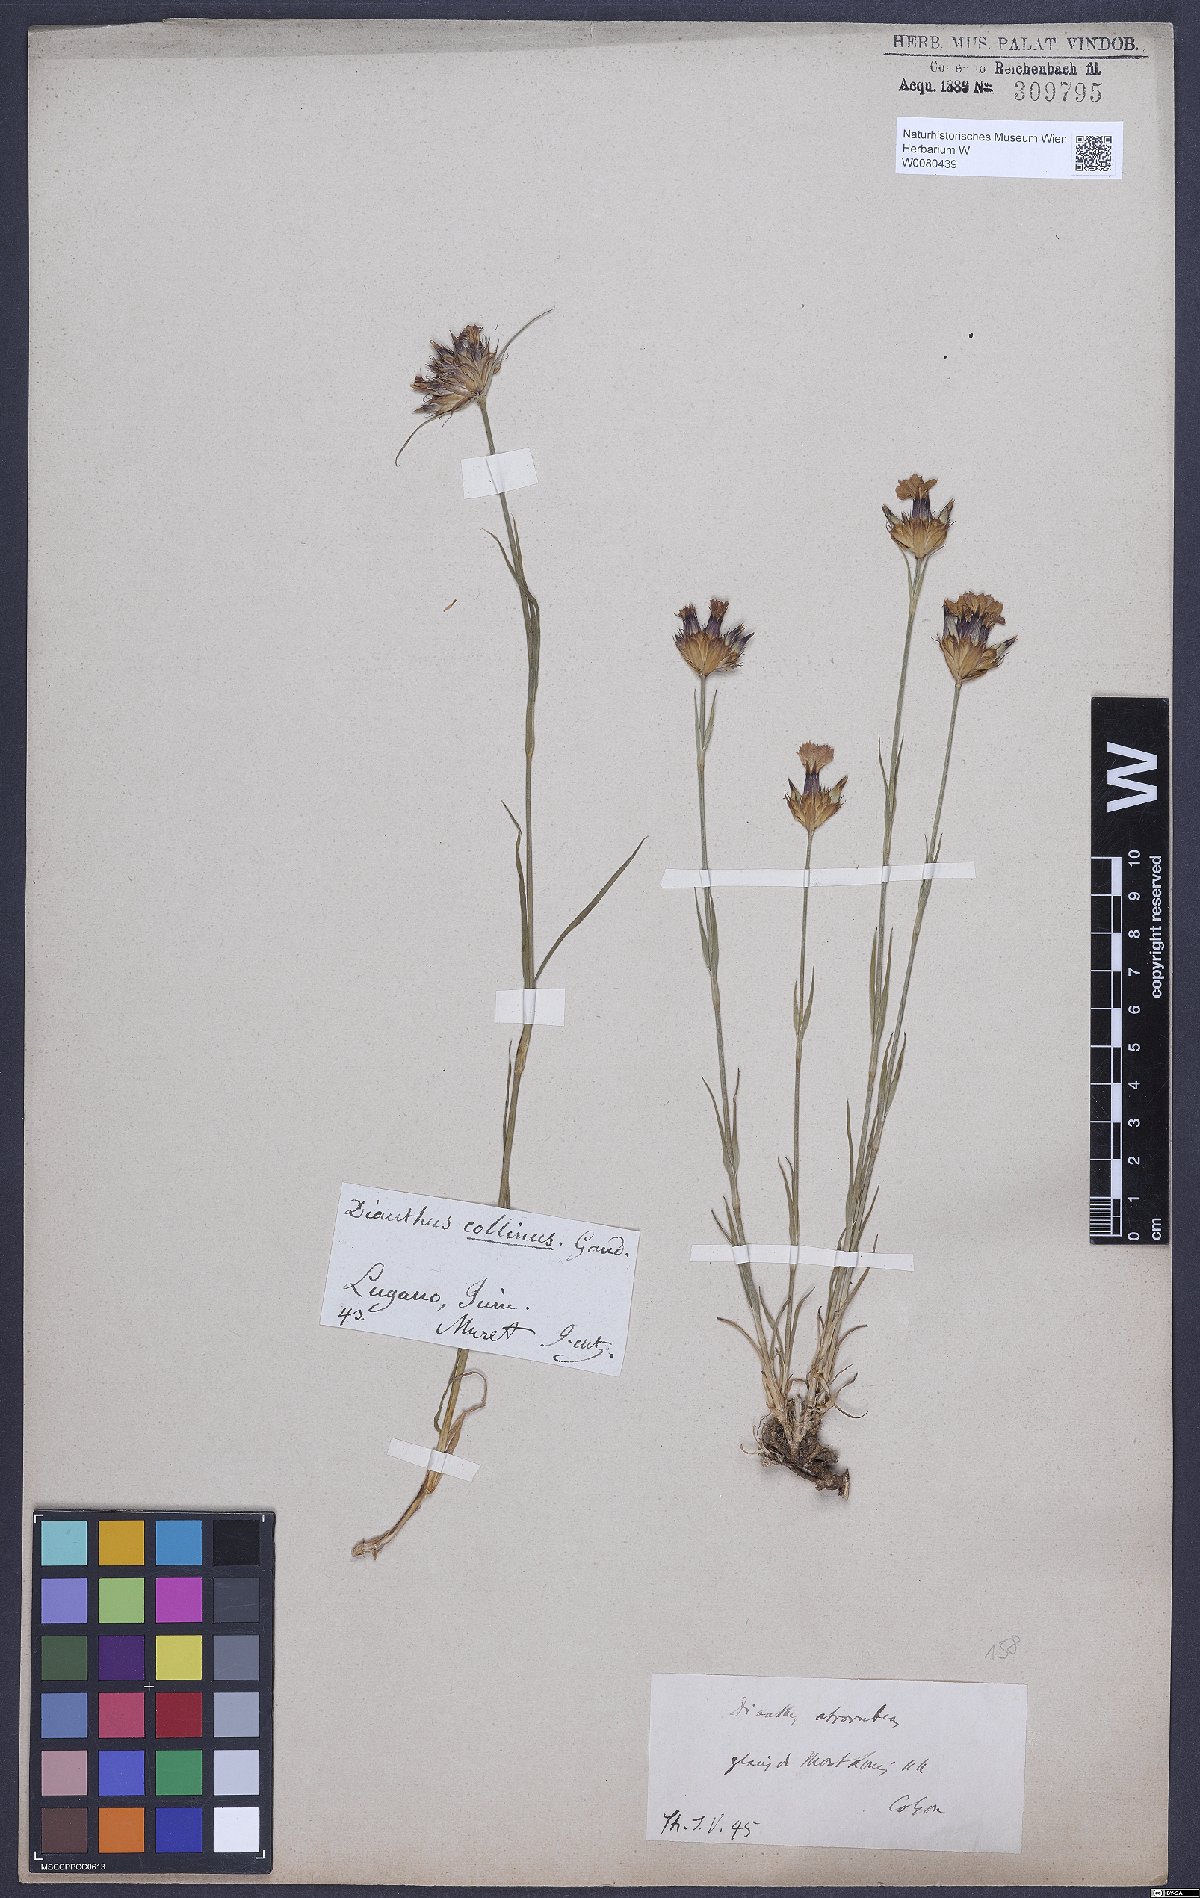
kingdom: Plantae
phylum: Tracheophyta
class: Magnoliopsida
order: Caryophyllales
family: Caryophyllaceae
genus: Dianthus
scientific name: Dianthus carthusianorum
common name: Carthusian pink
